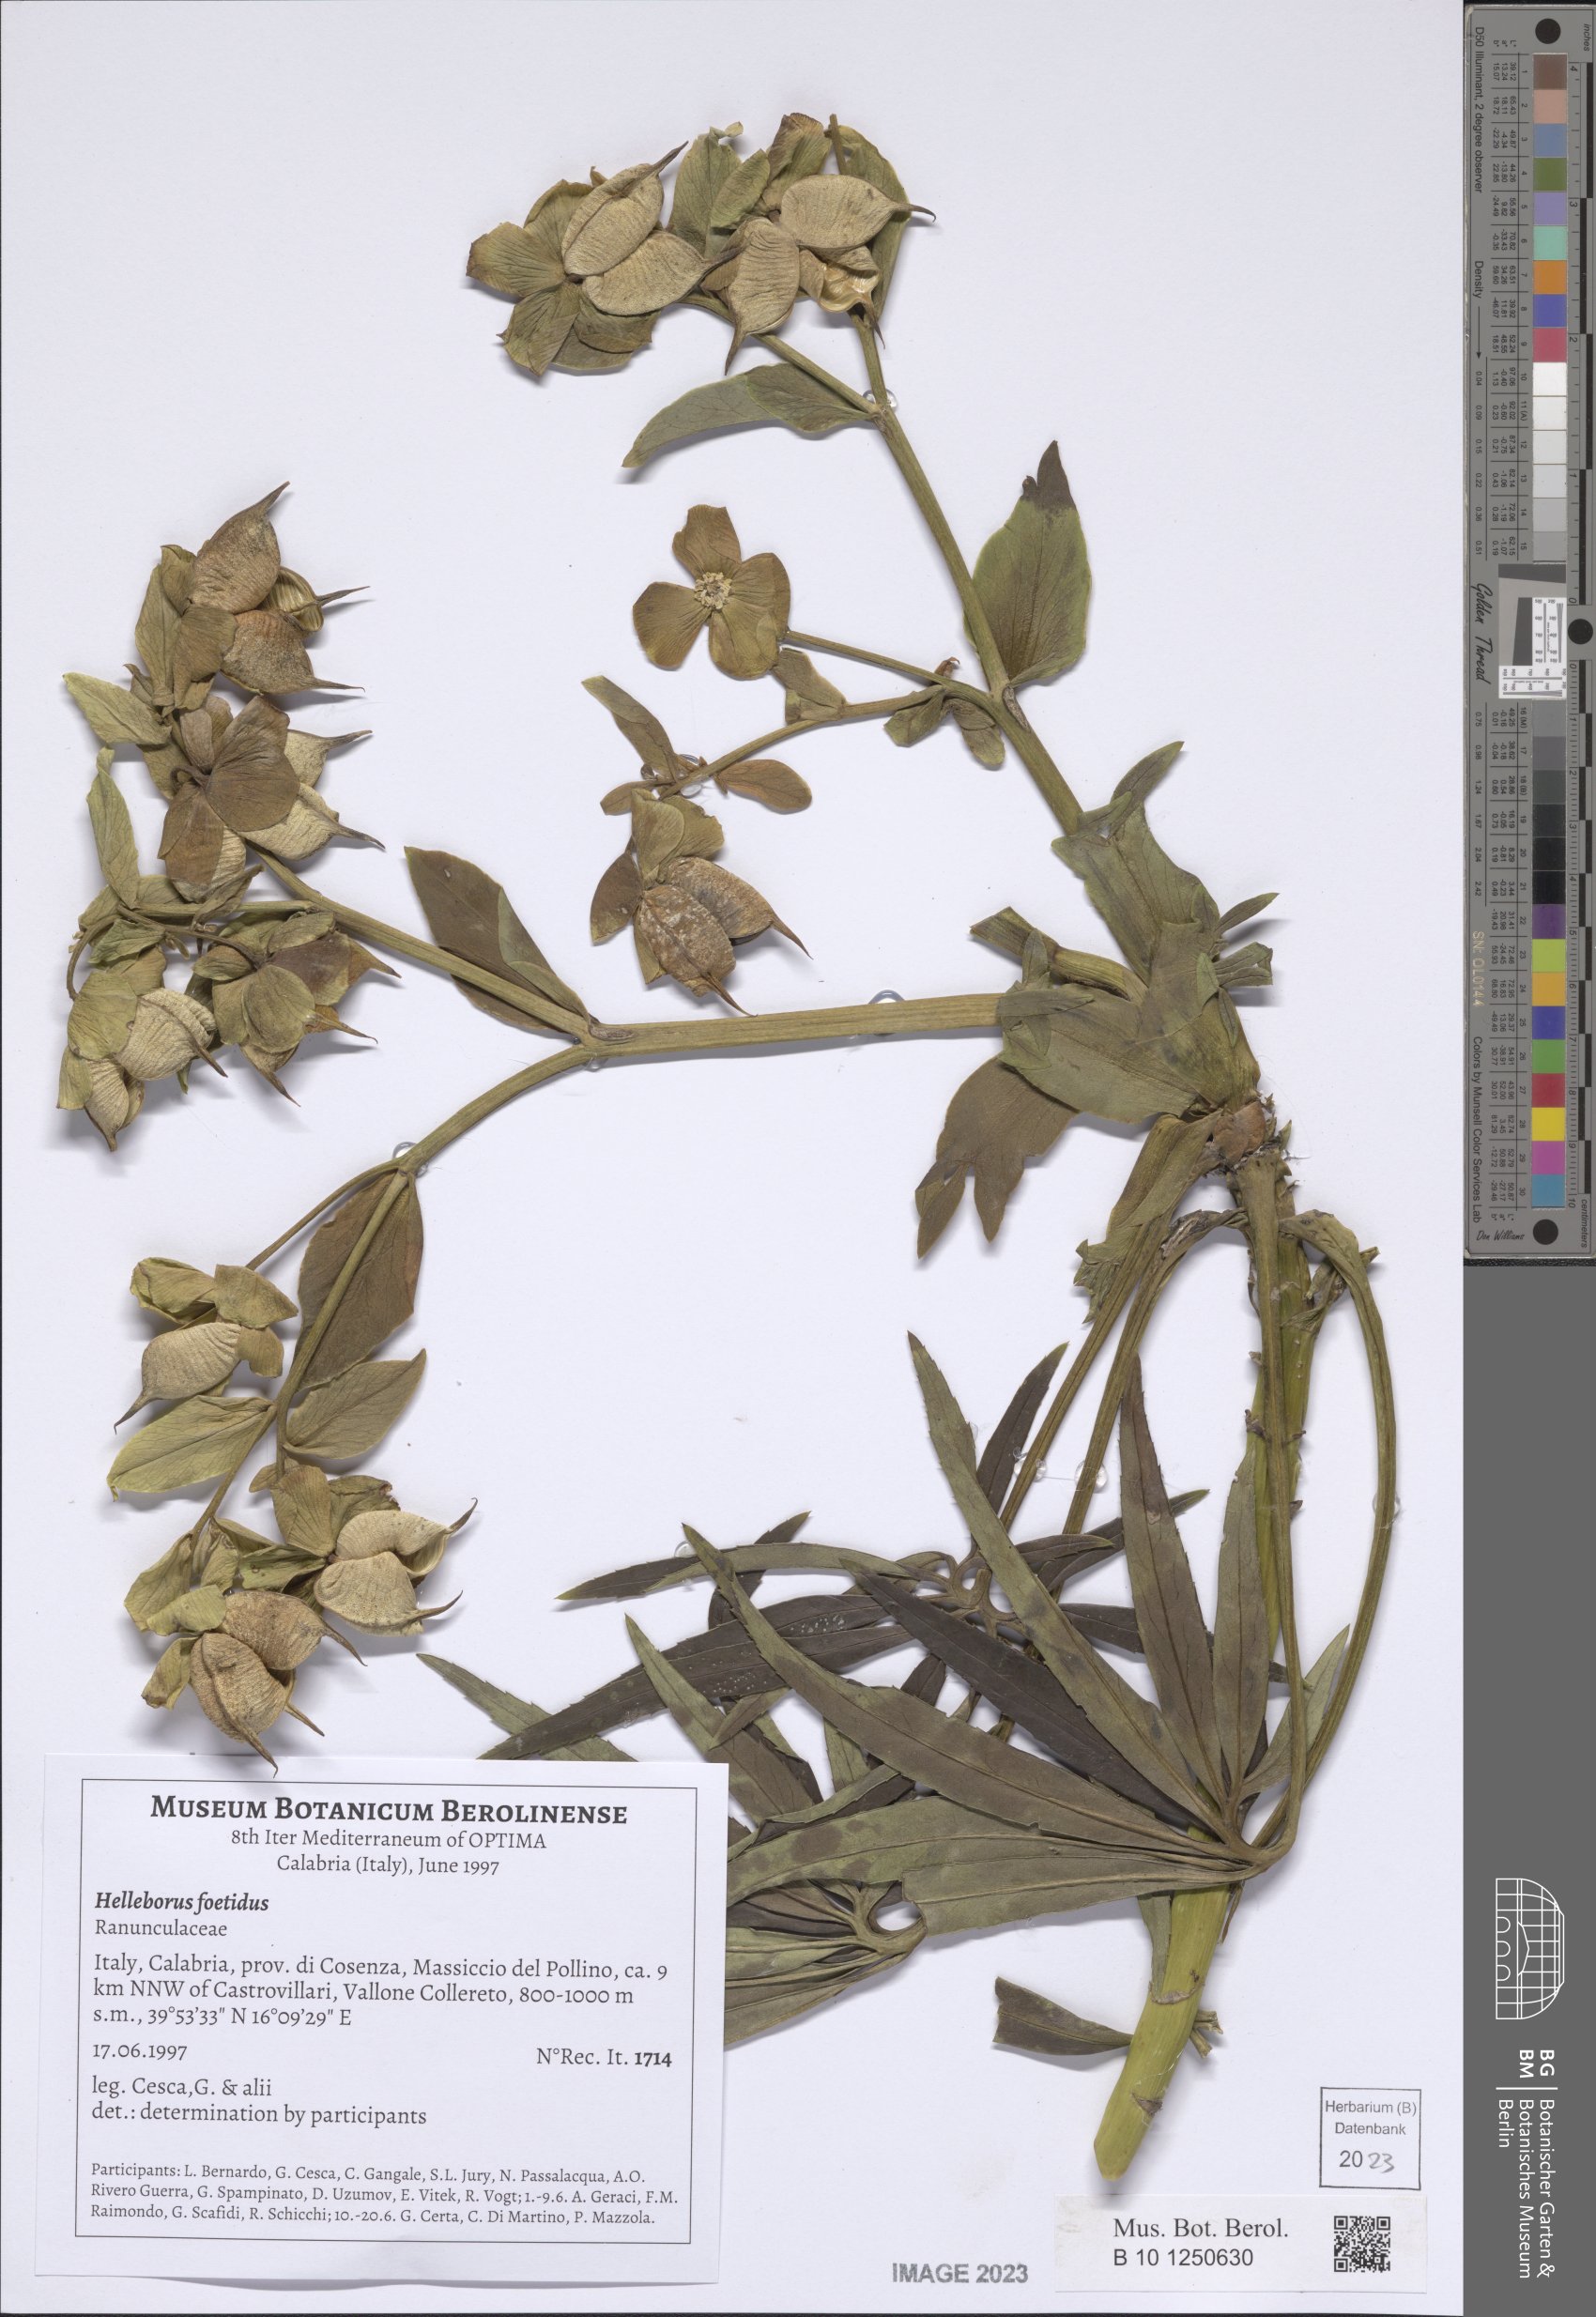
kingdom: Plantae
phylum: Tracheophyta
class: Magnoliopsida
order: Ranunculales
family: Ranunculaceae
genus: Helleborus
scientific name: Helleborus foetidus
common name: Stinking hellebore
